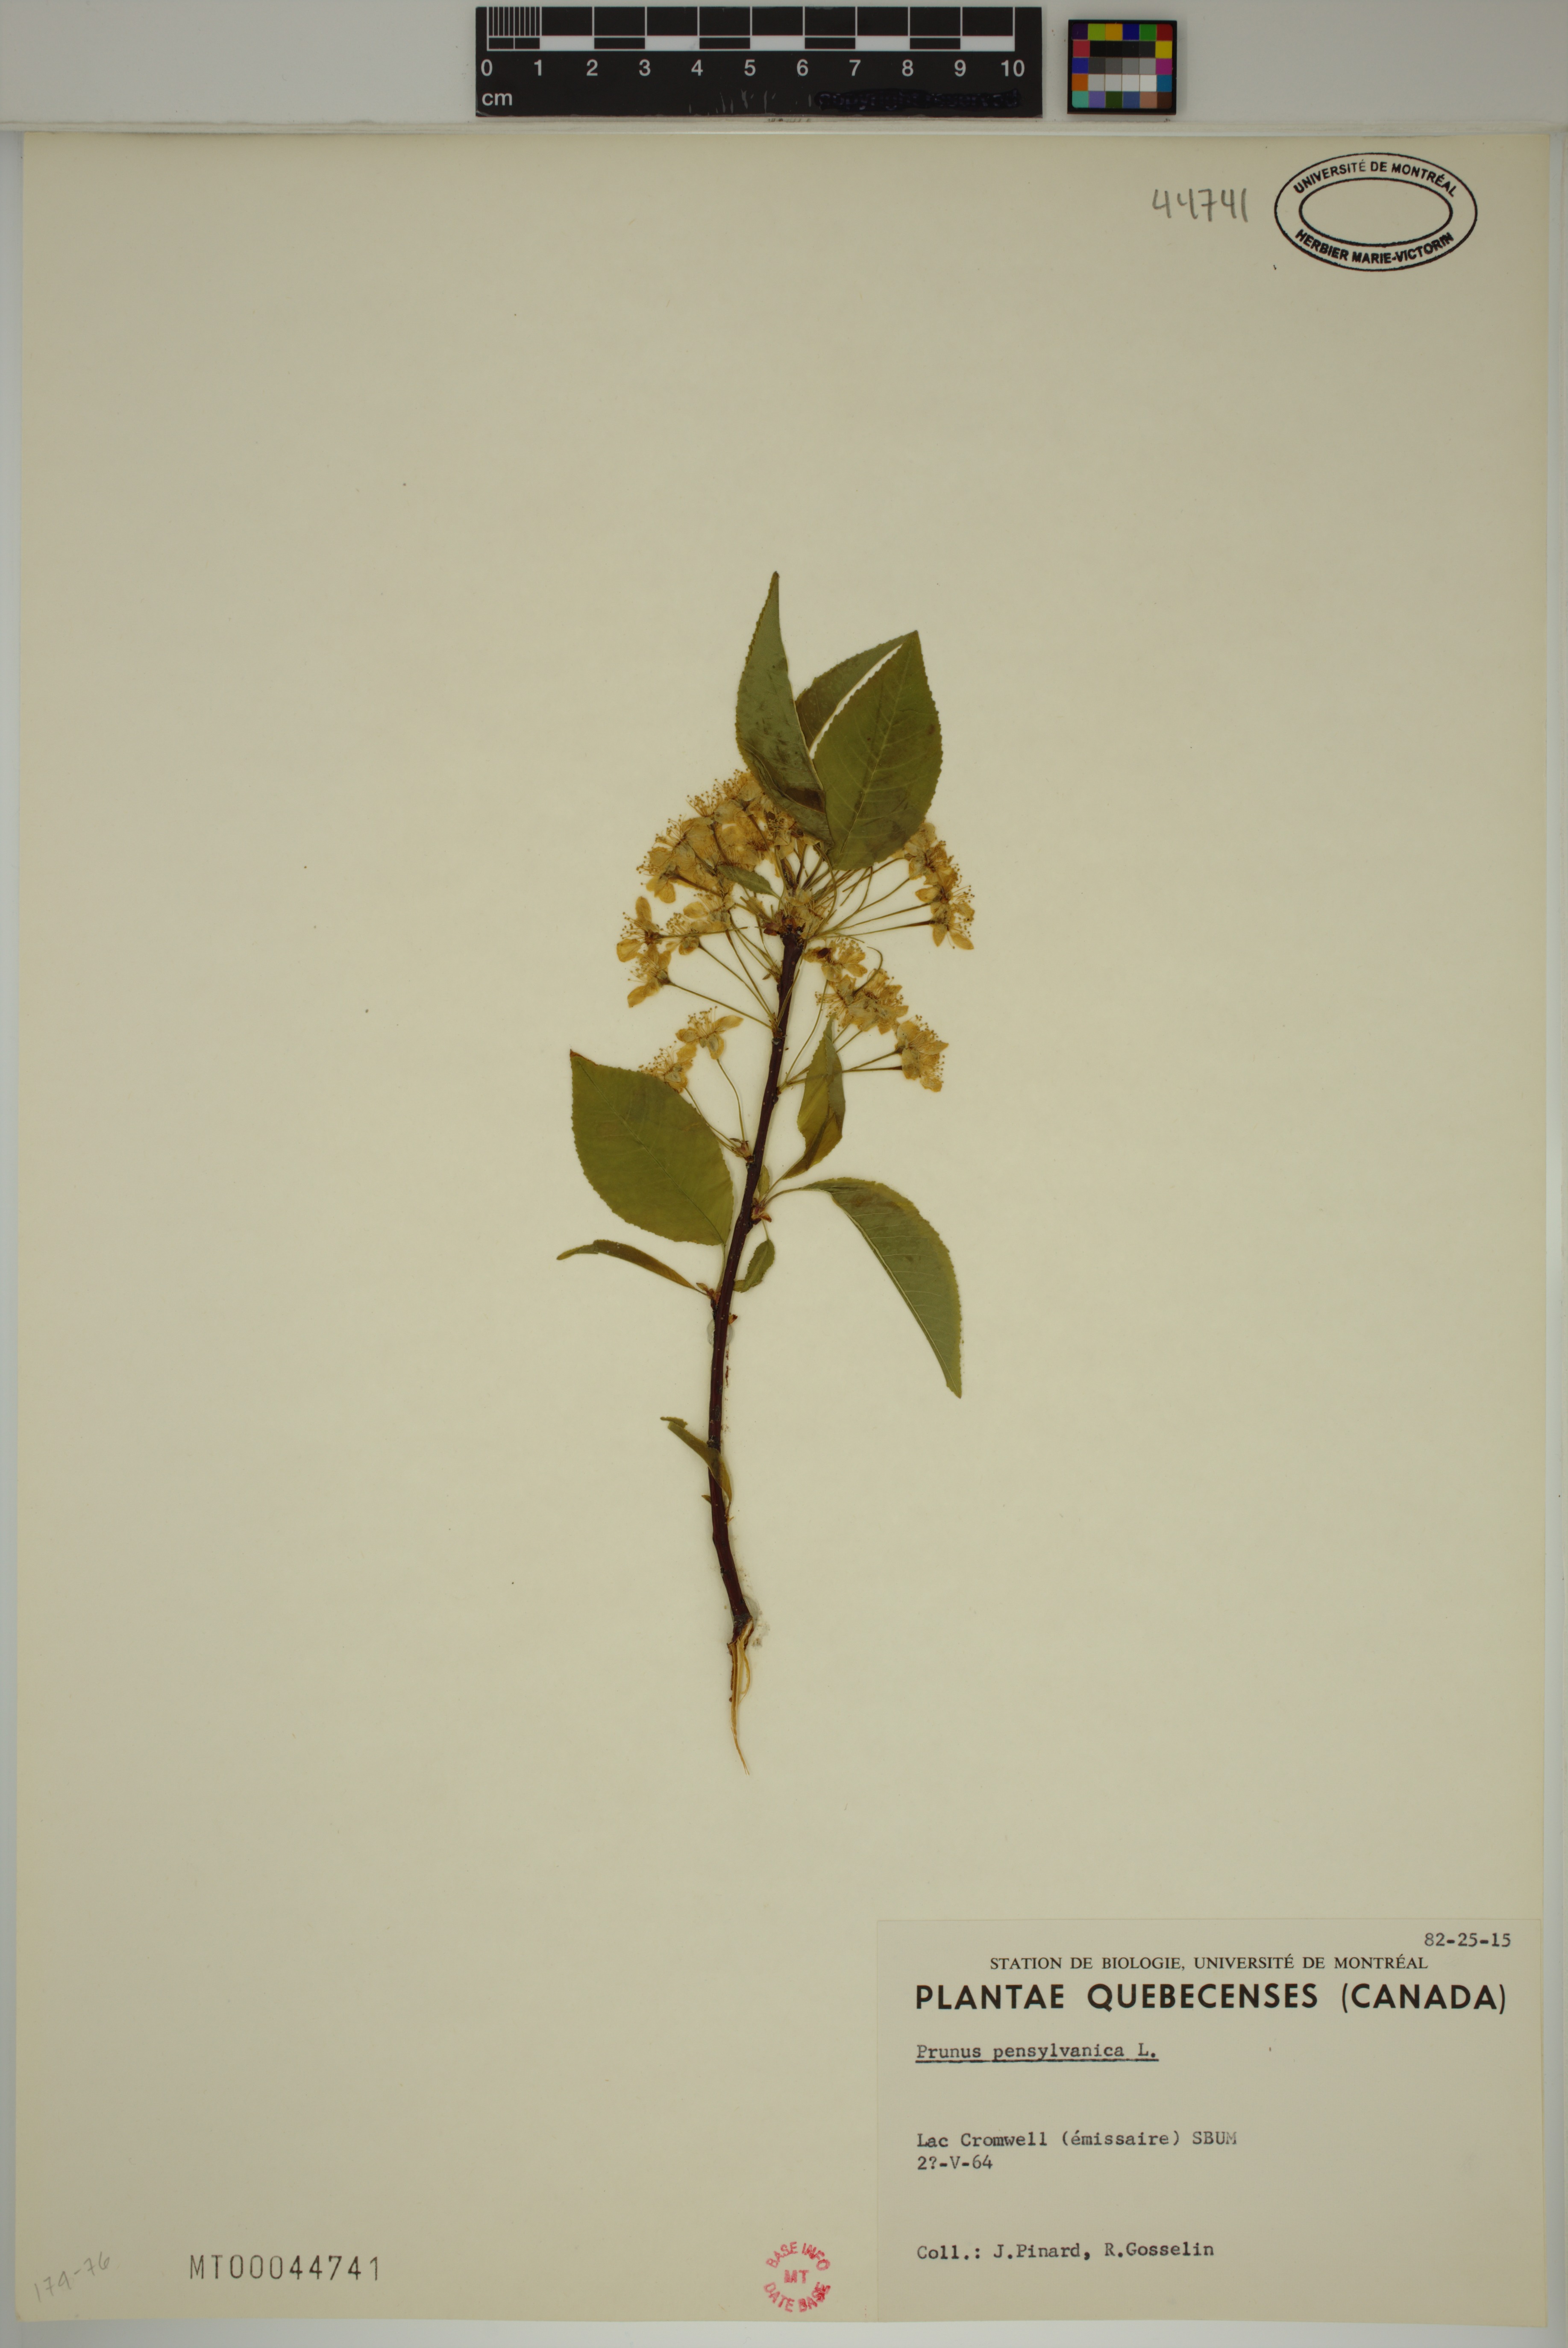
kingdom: Plantae
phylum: Tracheophyta
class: Magnoliopsida
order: Rosales
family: Rosaceae
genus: Prunus
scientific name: Prunus pensylvanica
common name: Pin cherry
